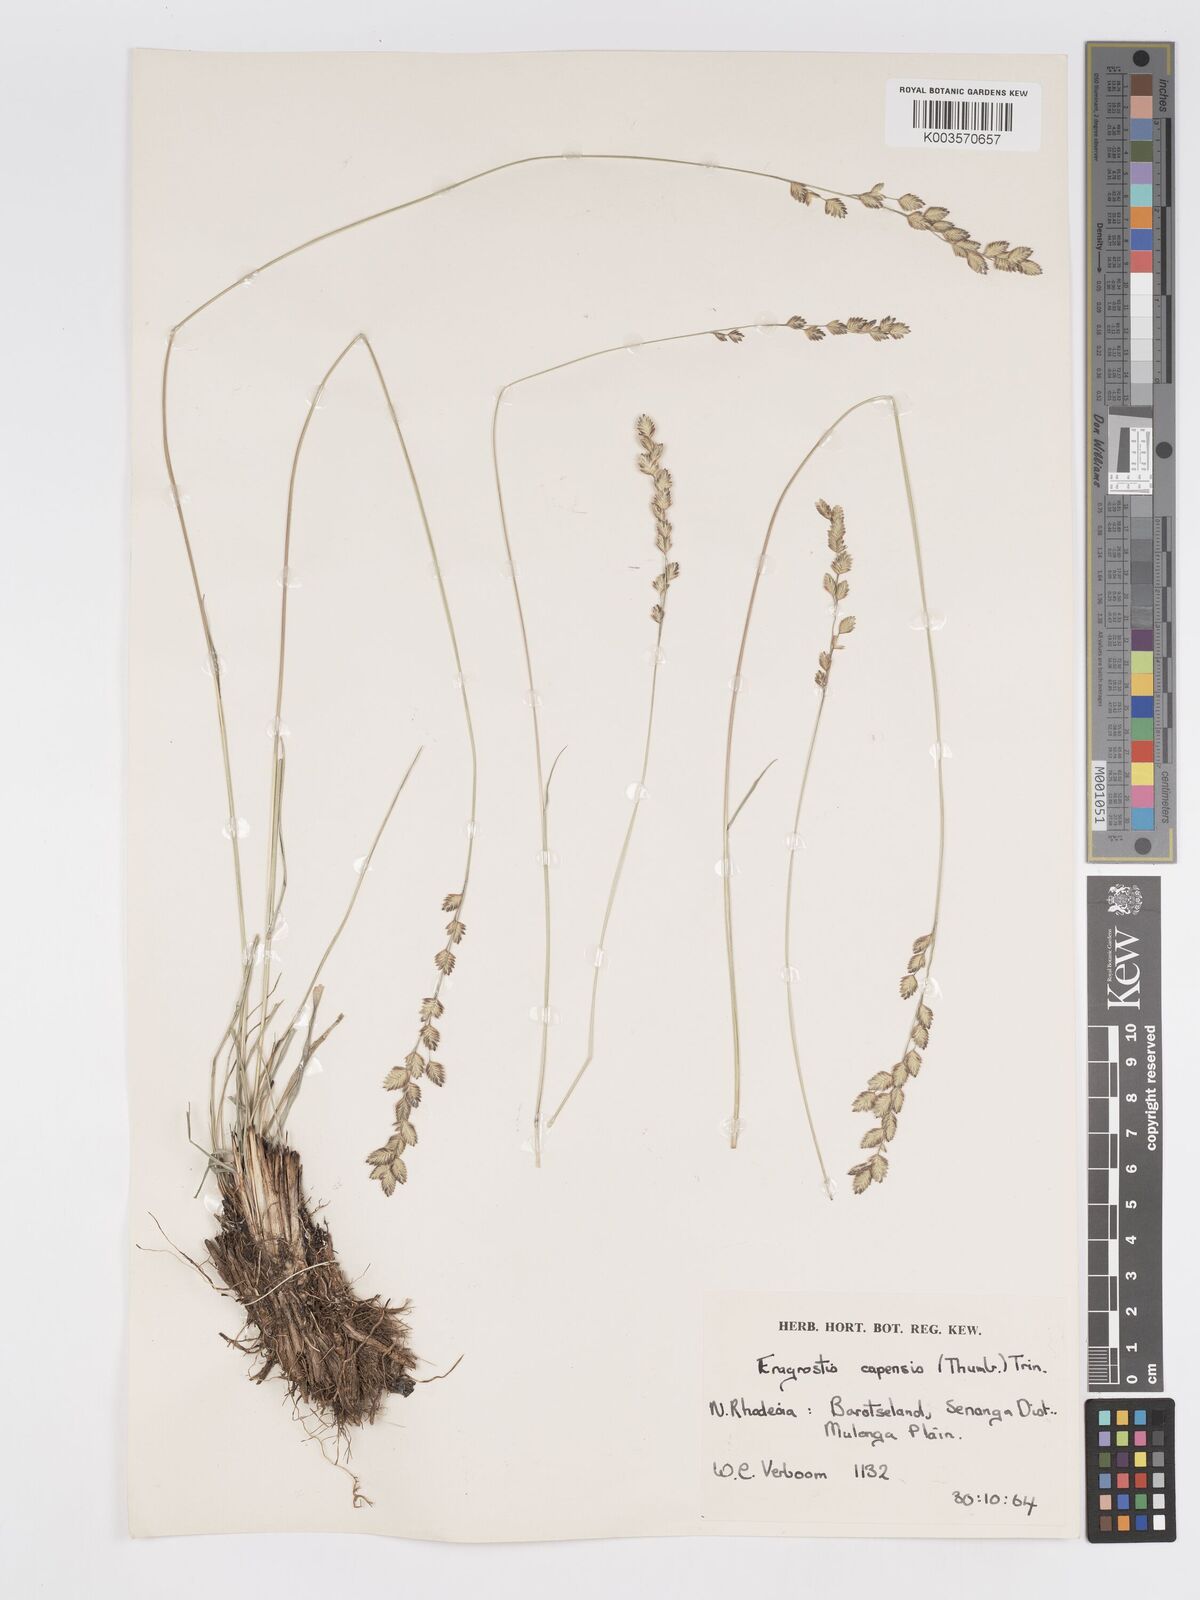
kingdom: Plantae
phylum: Tracheophyta
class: Liliopsida
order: Poales
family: Poaceae
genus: Eragrostis
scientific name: Eragrostis capensis
